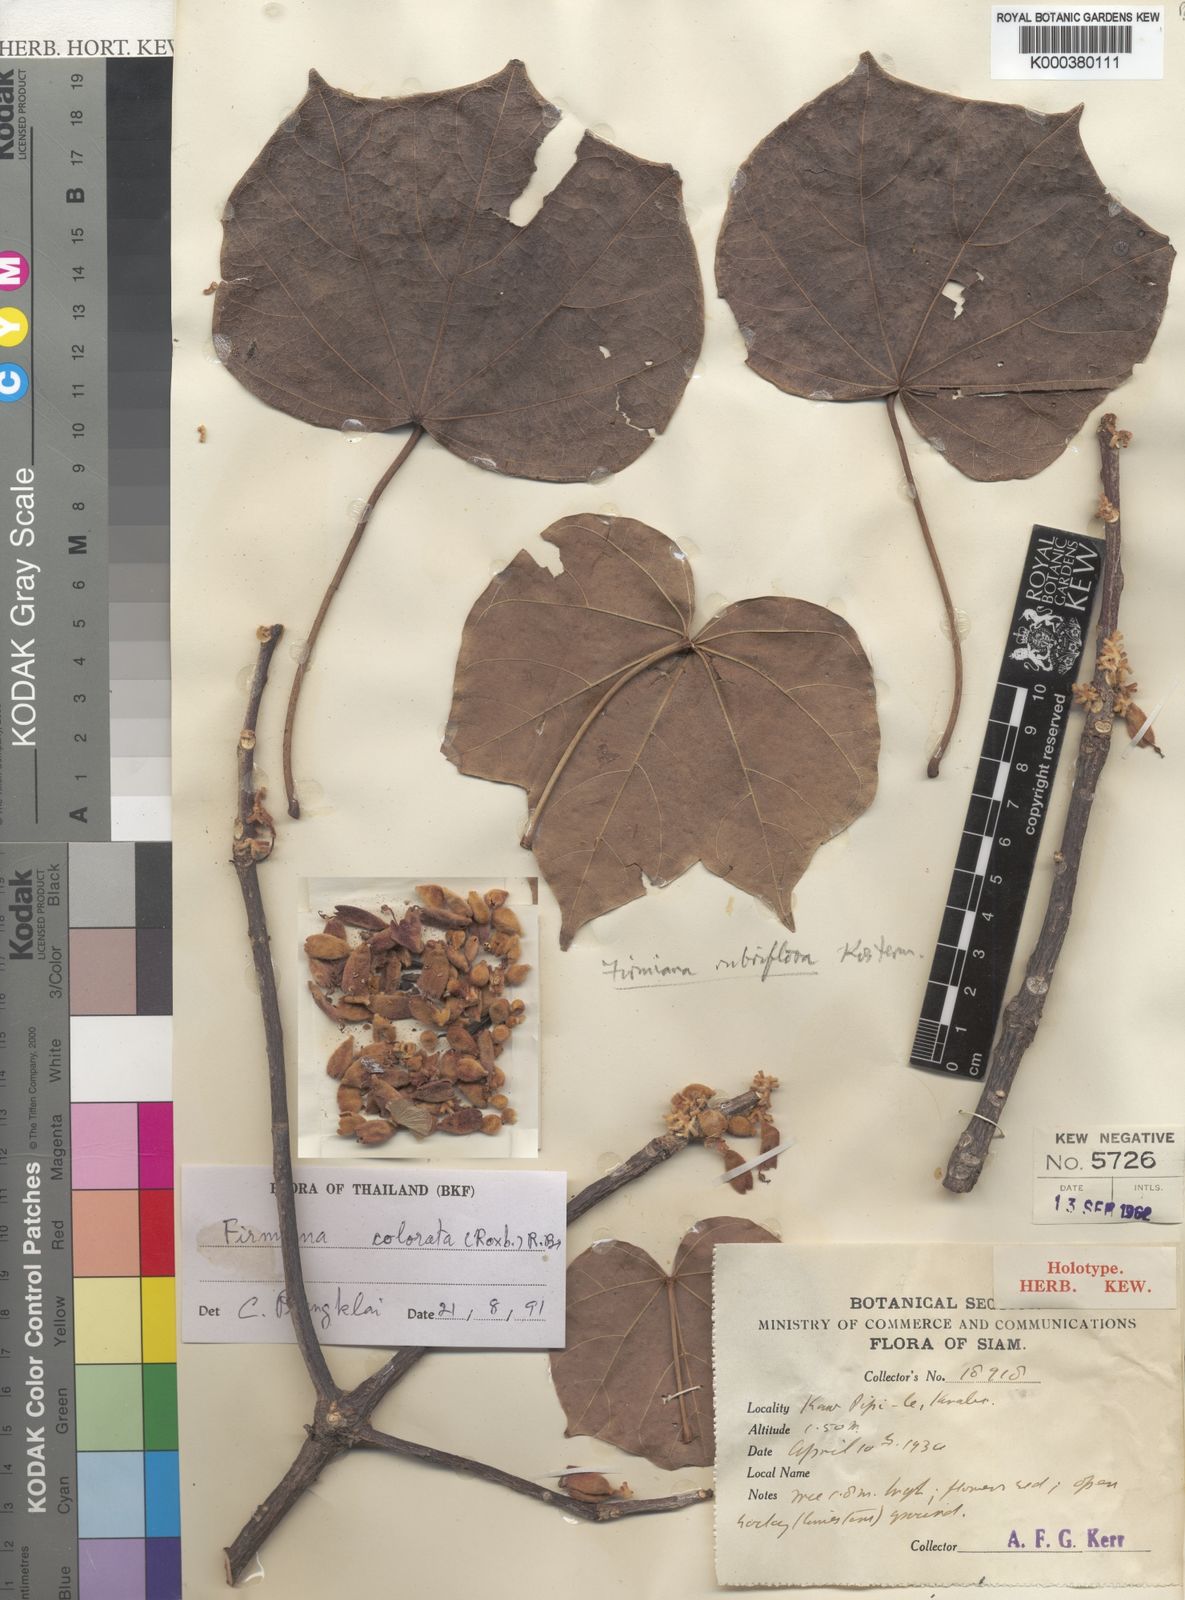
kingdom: Plantae
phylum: Tracheophyta
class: Magnoliopsida
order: Malvales
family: Malvaceae
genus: Firmiana
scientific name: Firmiana colorata
